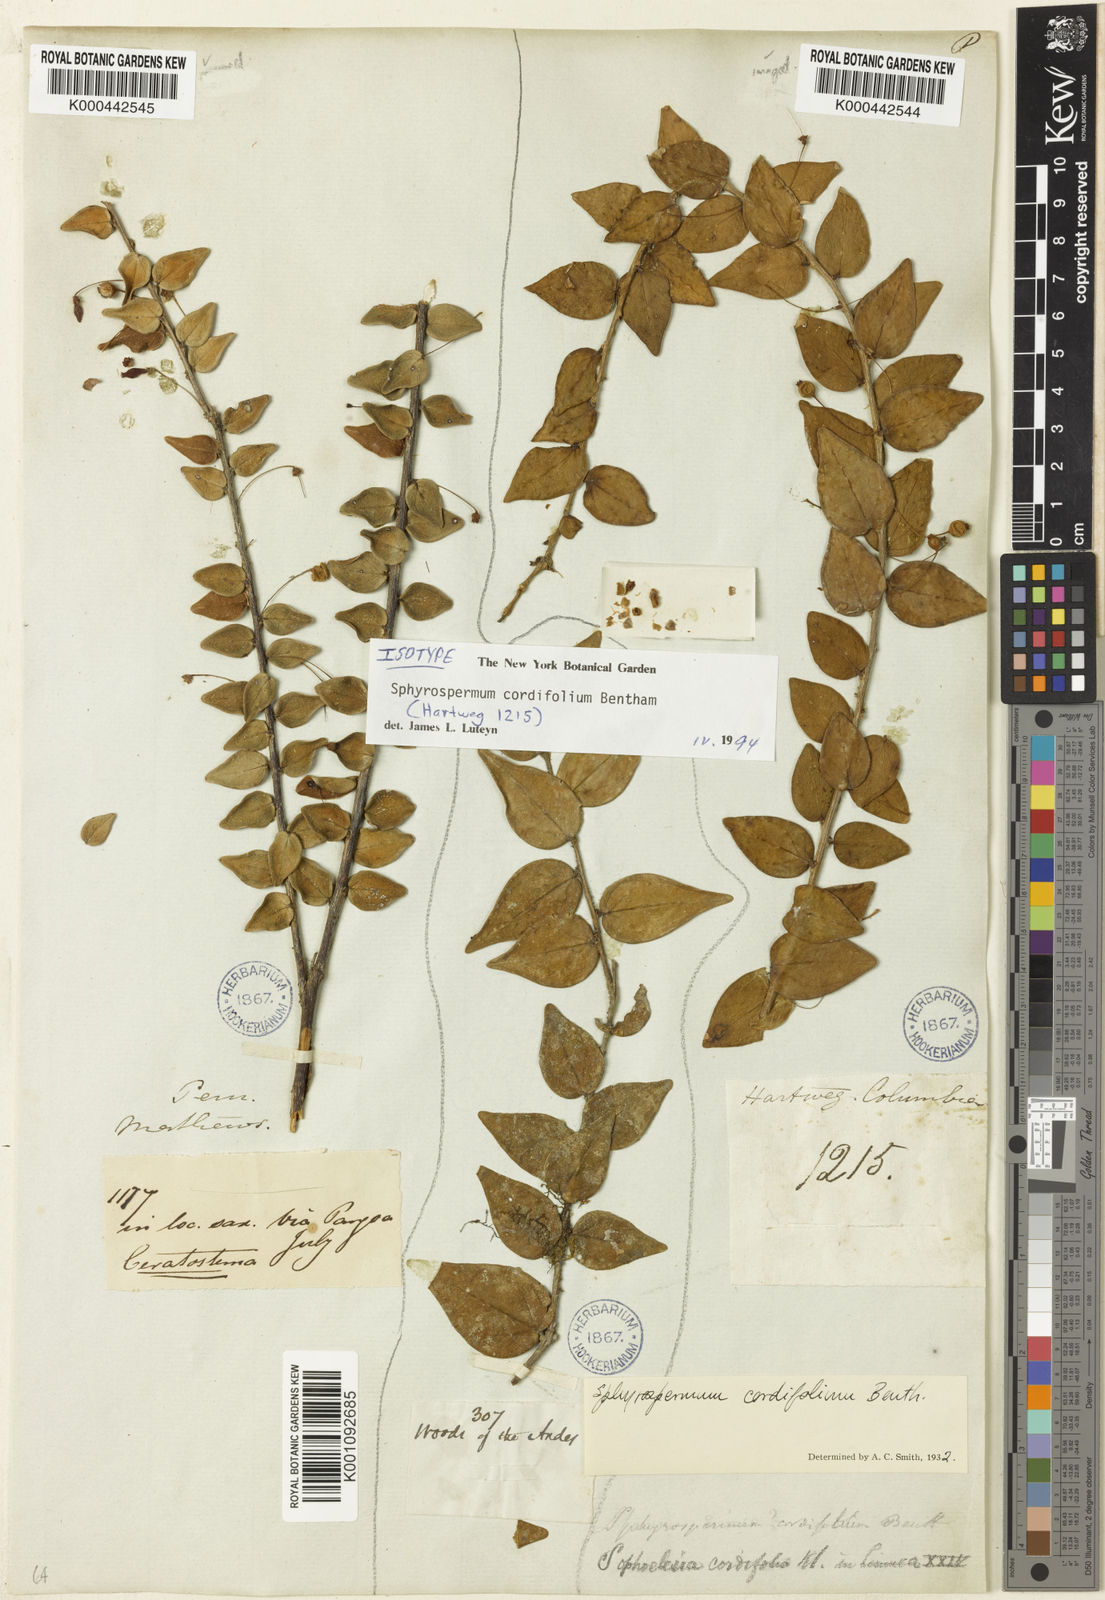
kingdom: Plantae
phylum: Tracheophyta
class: Magnoliopsida
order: Ericales
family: Ericaceae
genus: Sphyrospermum
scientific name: Sphyrospermum cordifolium
